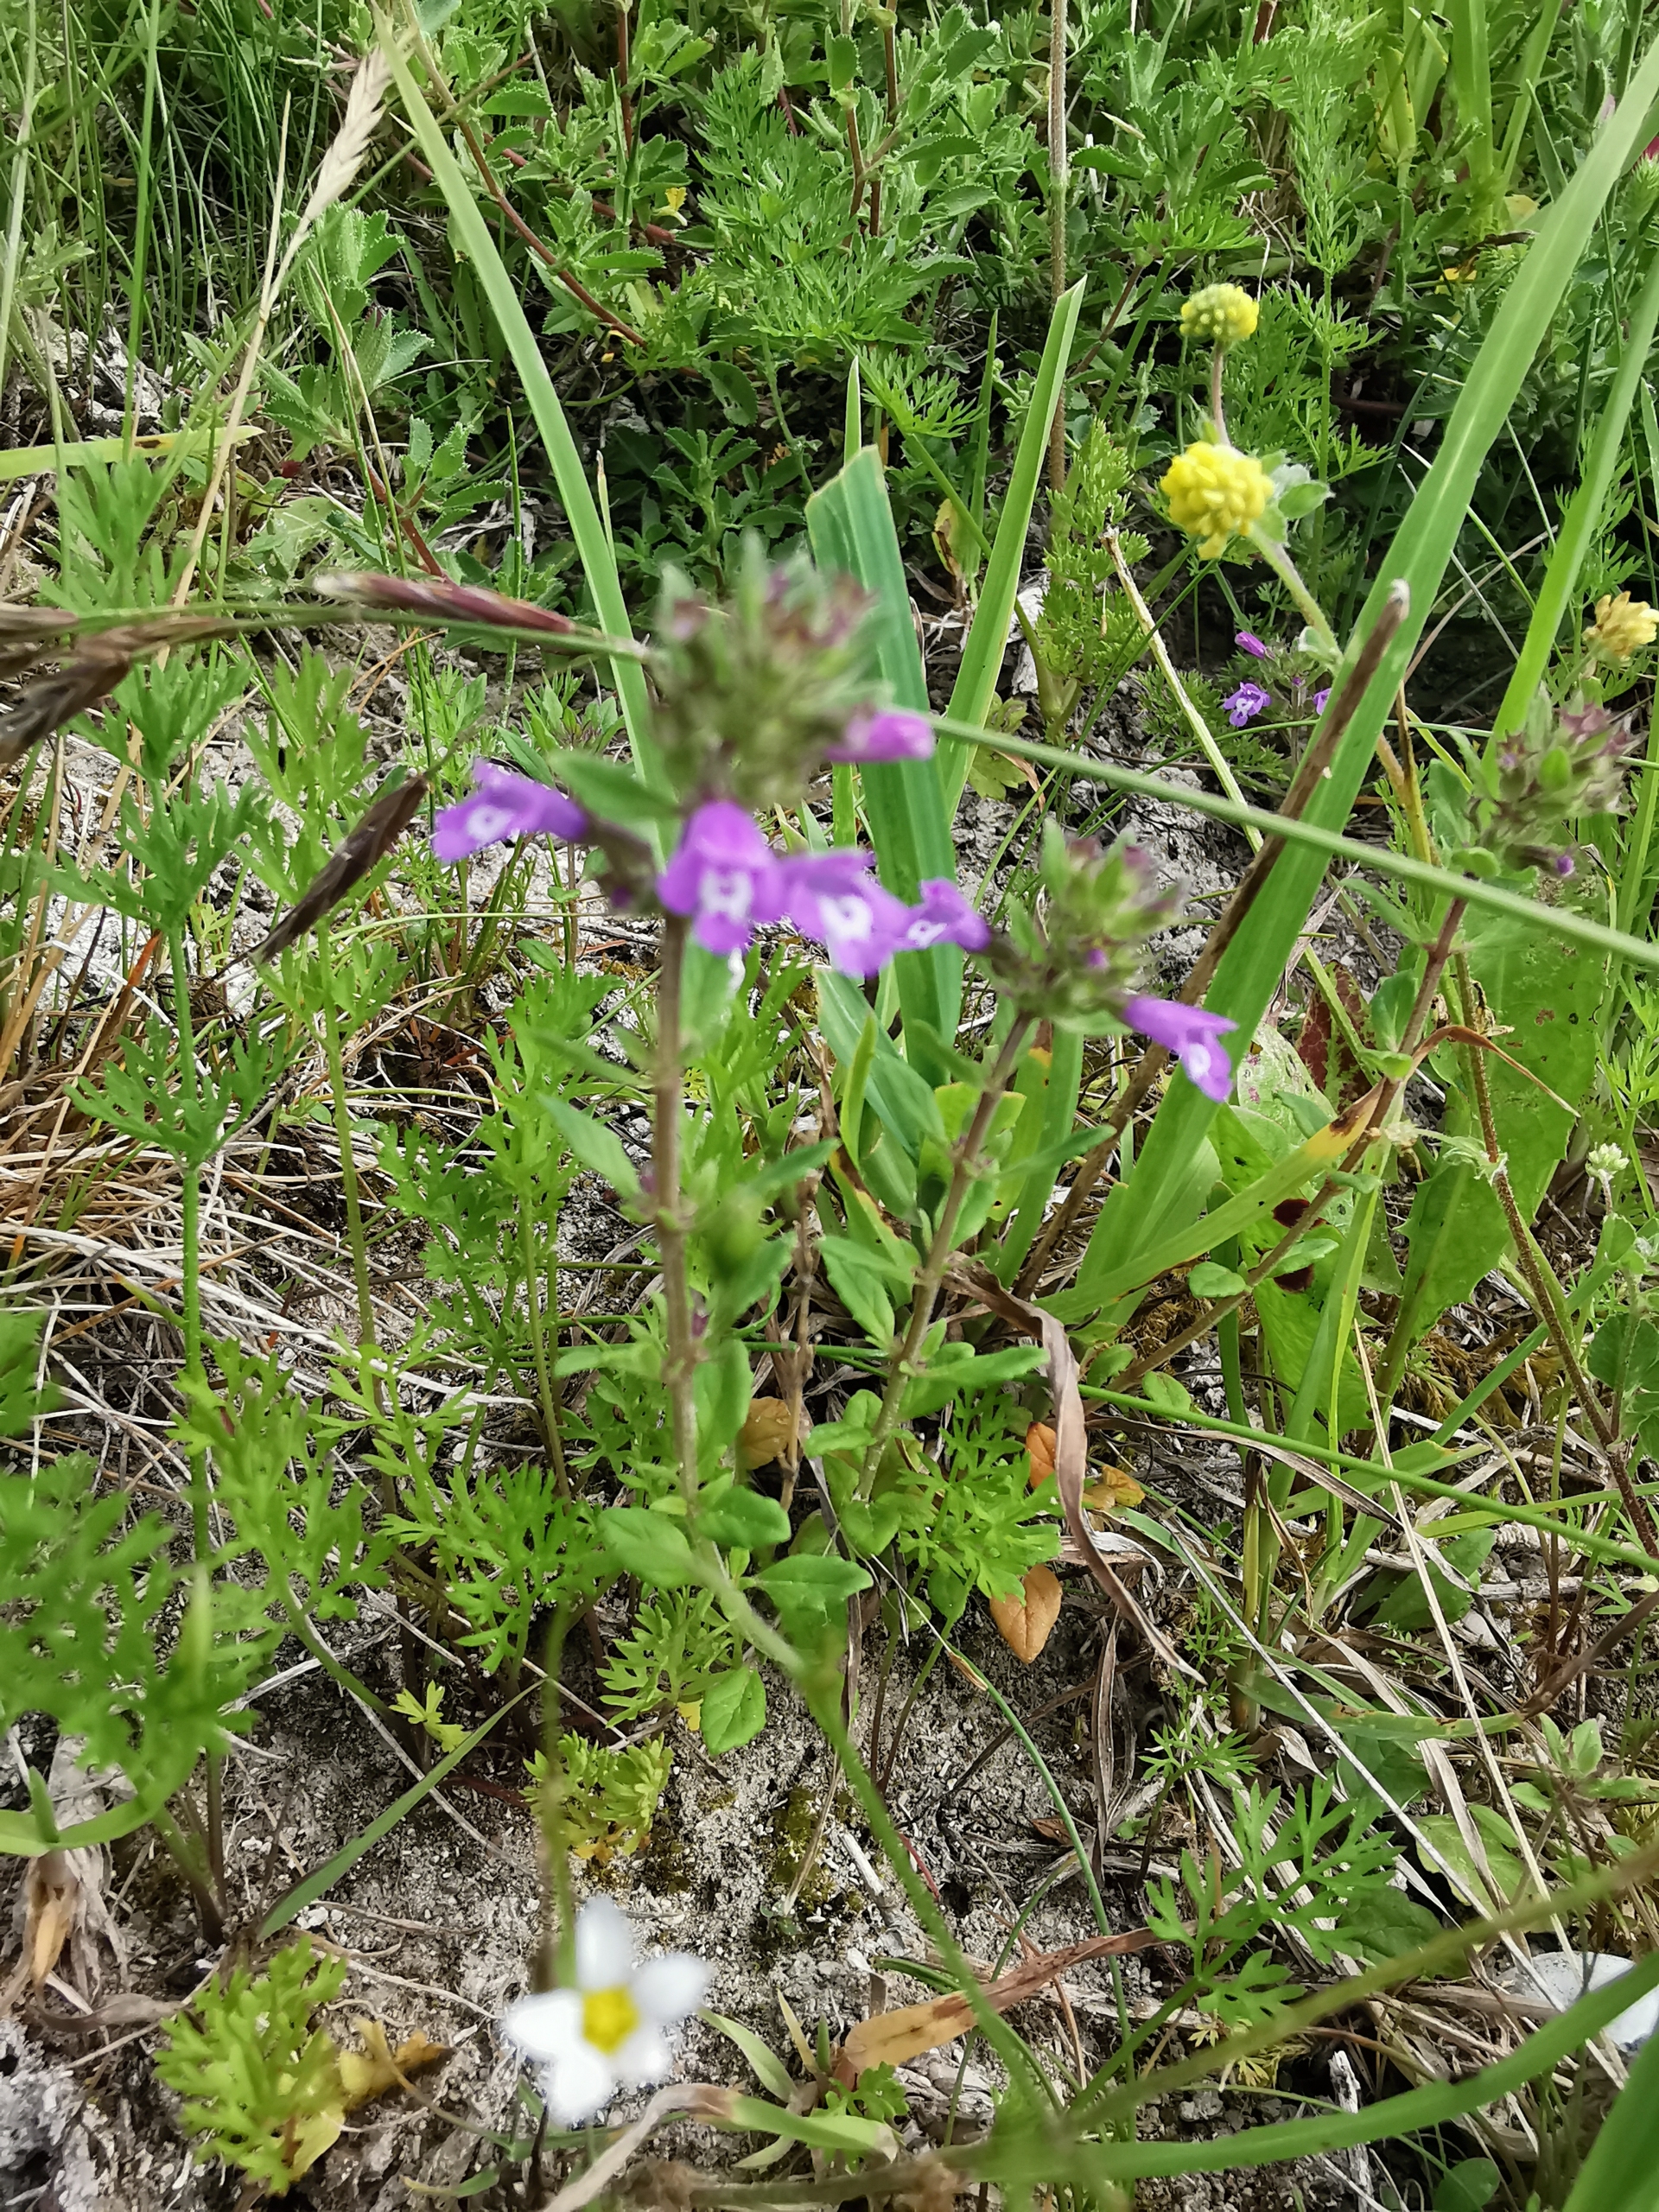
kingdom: Plantae
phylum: Tracheophyta
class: Magnoliopsida
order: Lamiales
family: Lamiaceae
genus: Clinopodium
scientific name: Clinopodium acinos
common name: Voldtimian
